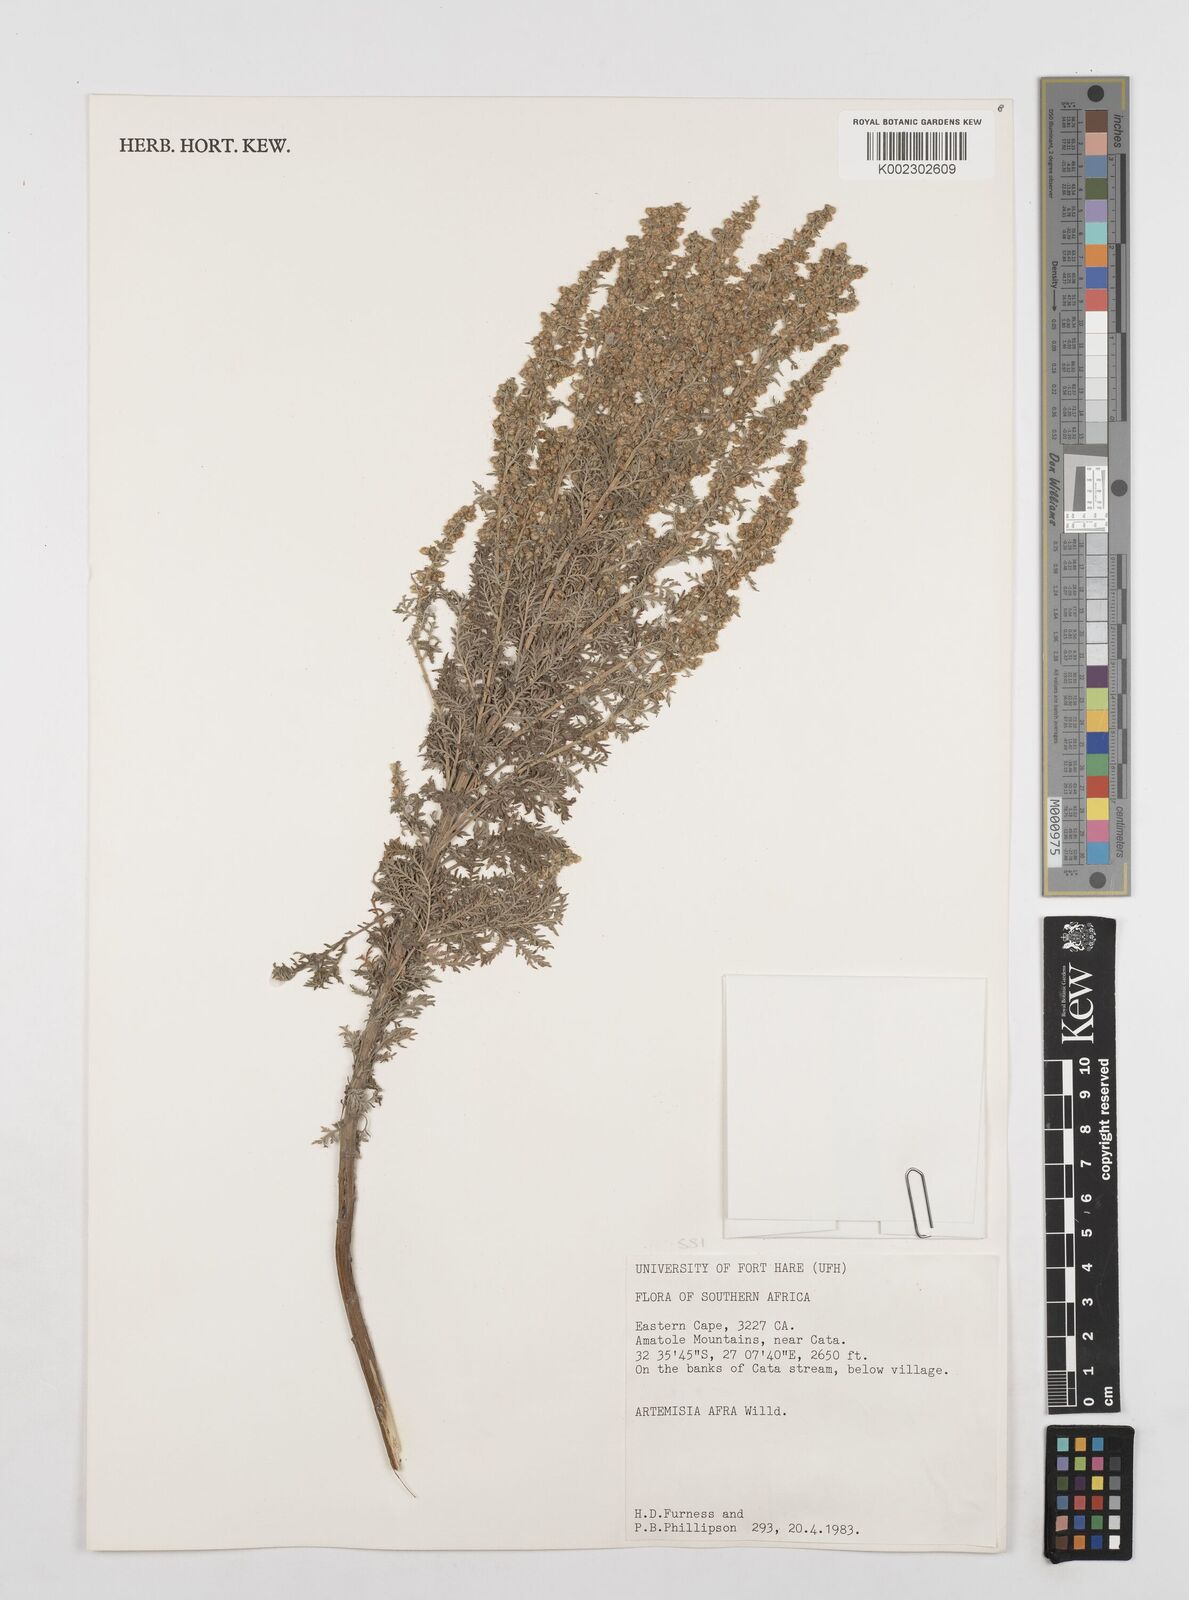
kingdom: Plantae
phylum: Tracheophyta
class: Magnoliopsida
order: Asterales
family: Asteraceae
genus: Artemisia
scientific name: Artemisia afra
